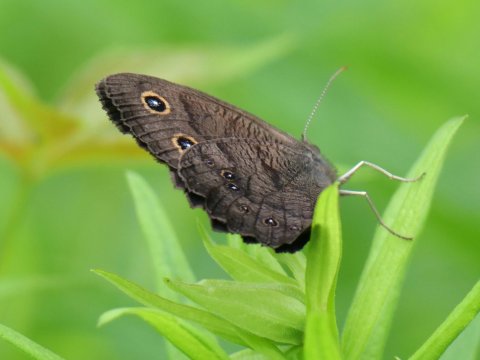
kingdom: Animalia
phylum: Arthropoda
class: Insecta
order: Lepidoptera
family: Nymphalidae
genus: Cercyonis
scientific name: Cercyonis pegala
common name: Common Wood-Nymph
